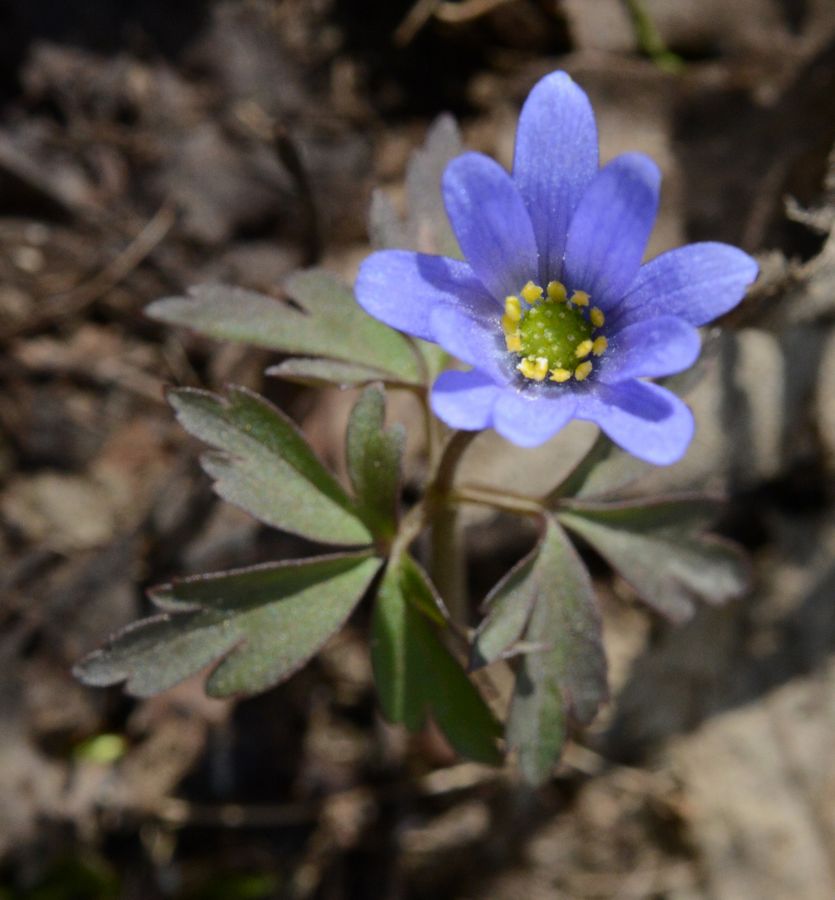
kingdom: Plantae
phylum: Tracheophyta
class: Magnoliopsida
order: Ranunculales
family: Ranunculaceae
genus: Anemone
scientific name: Anemone caucasica
